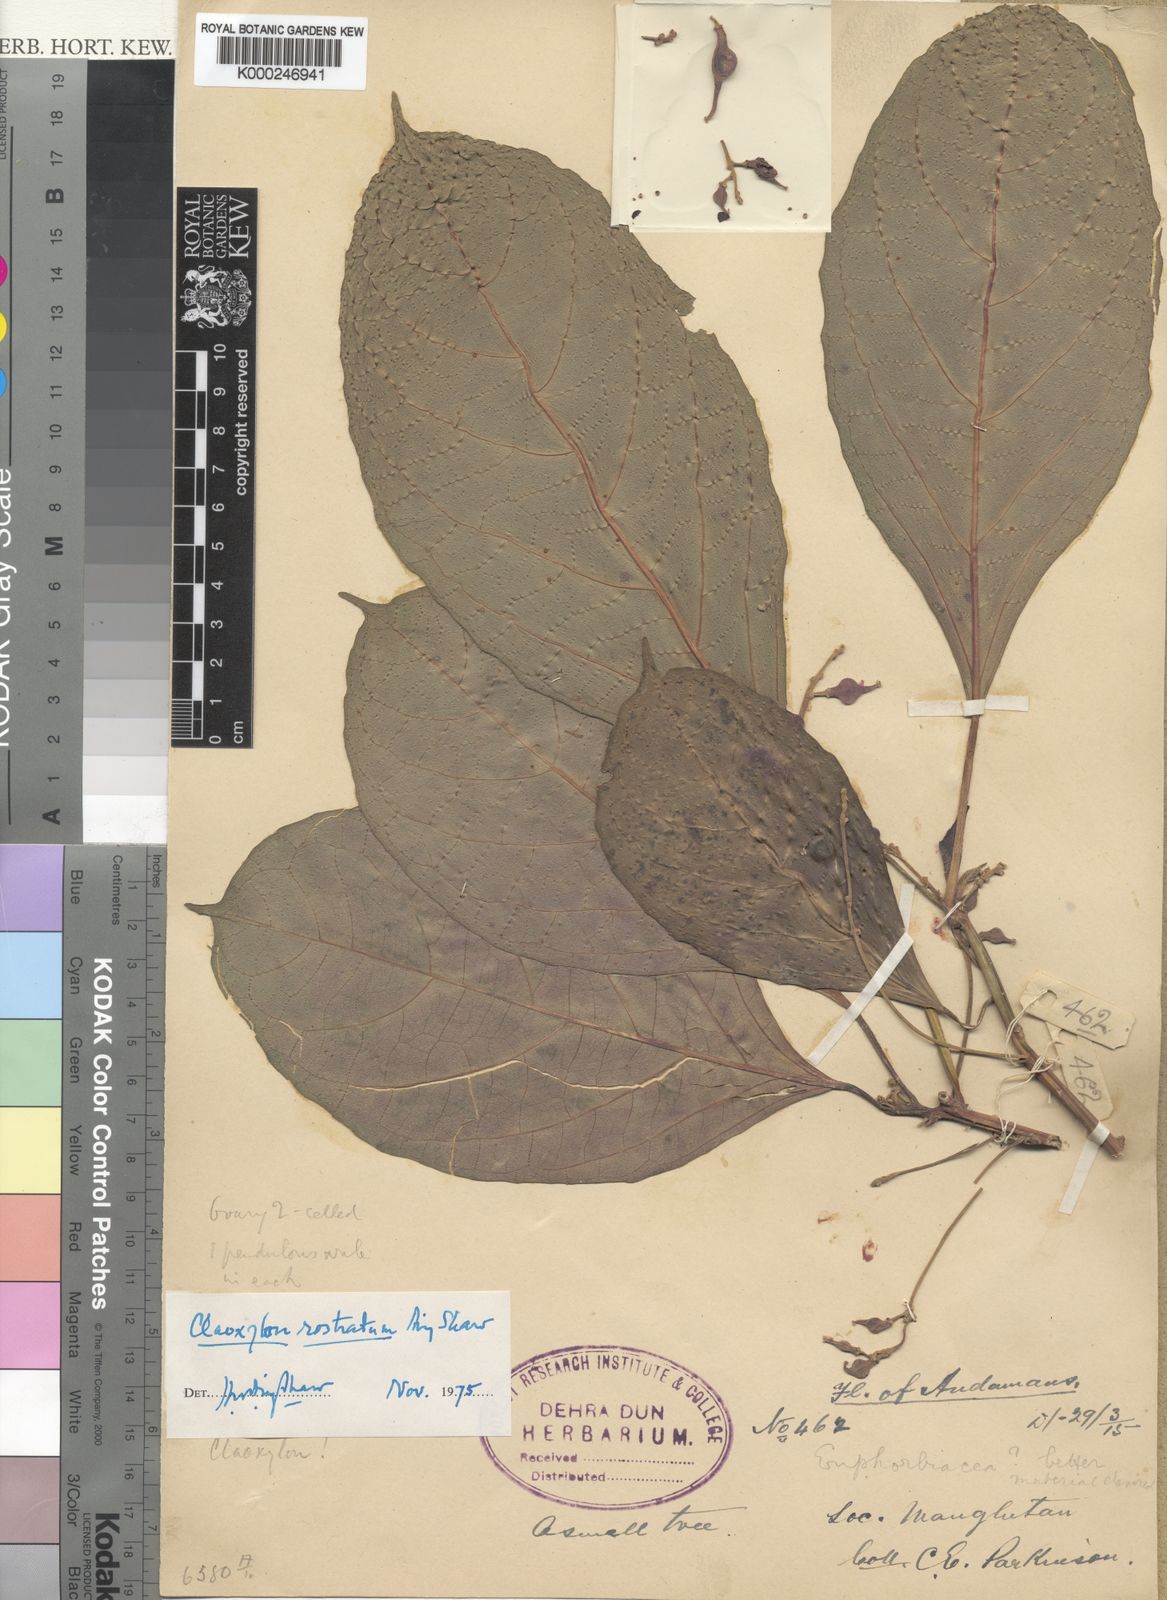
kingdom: Plantae
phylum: Tracheophyta
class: Magnoliopsida
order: Malpighiales
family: Euphorbiaceae
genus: Claoxylon
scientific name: Claoxylon rostratum
